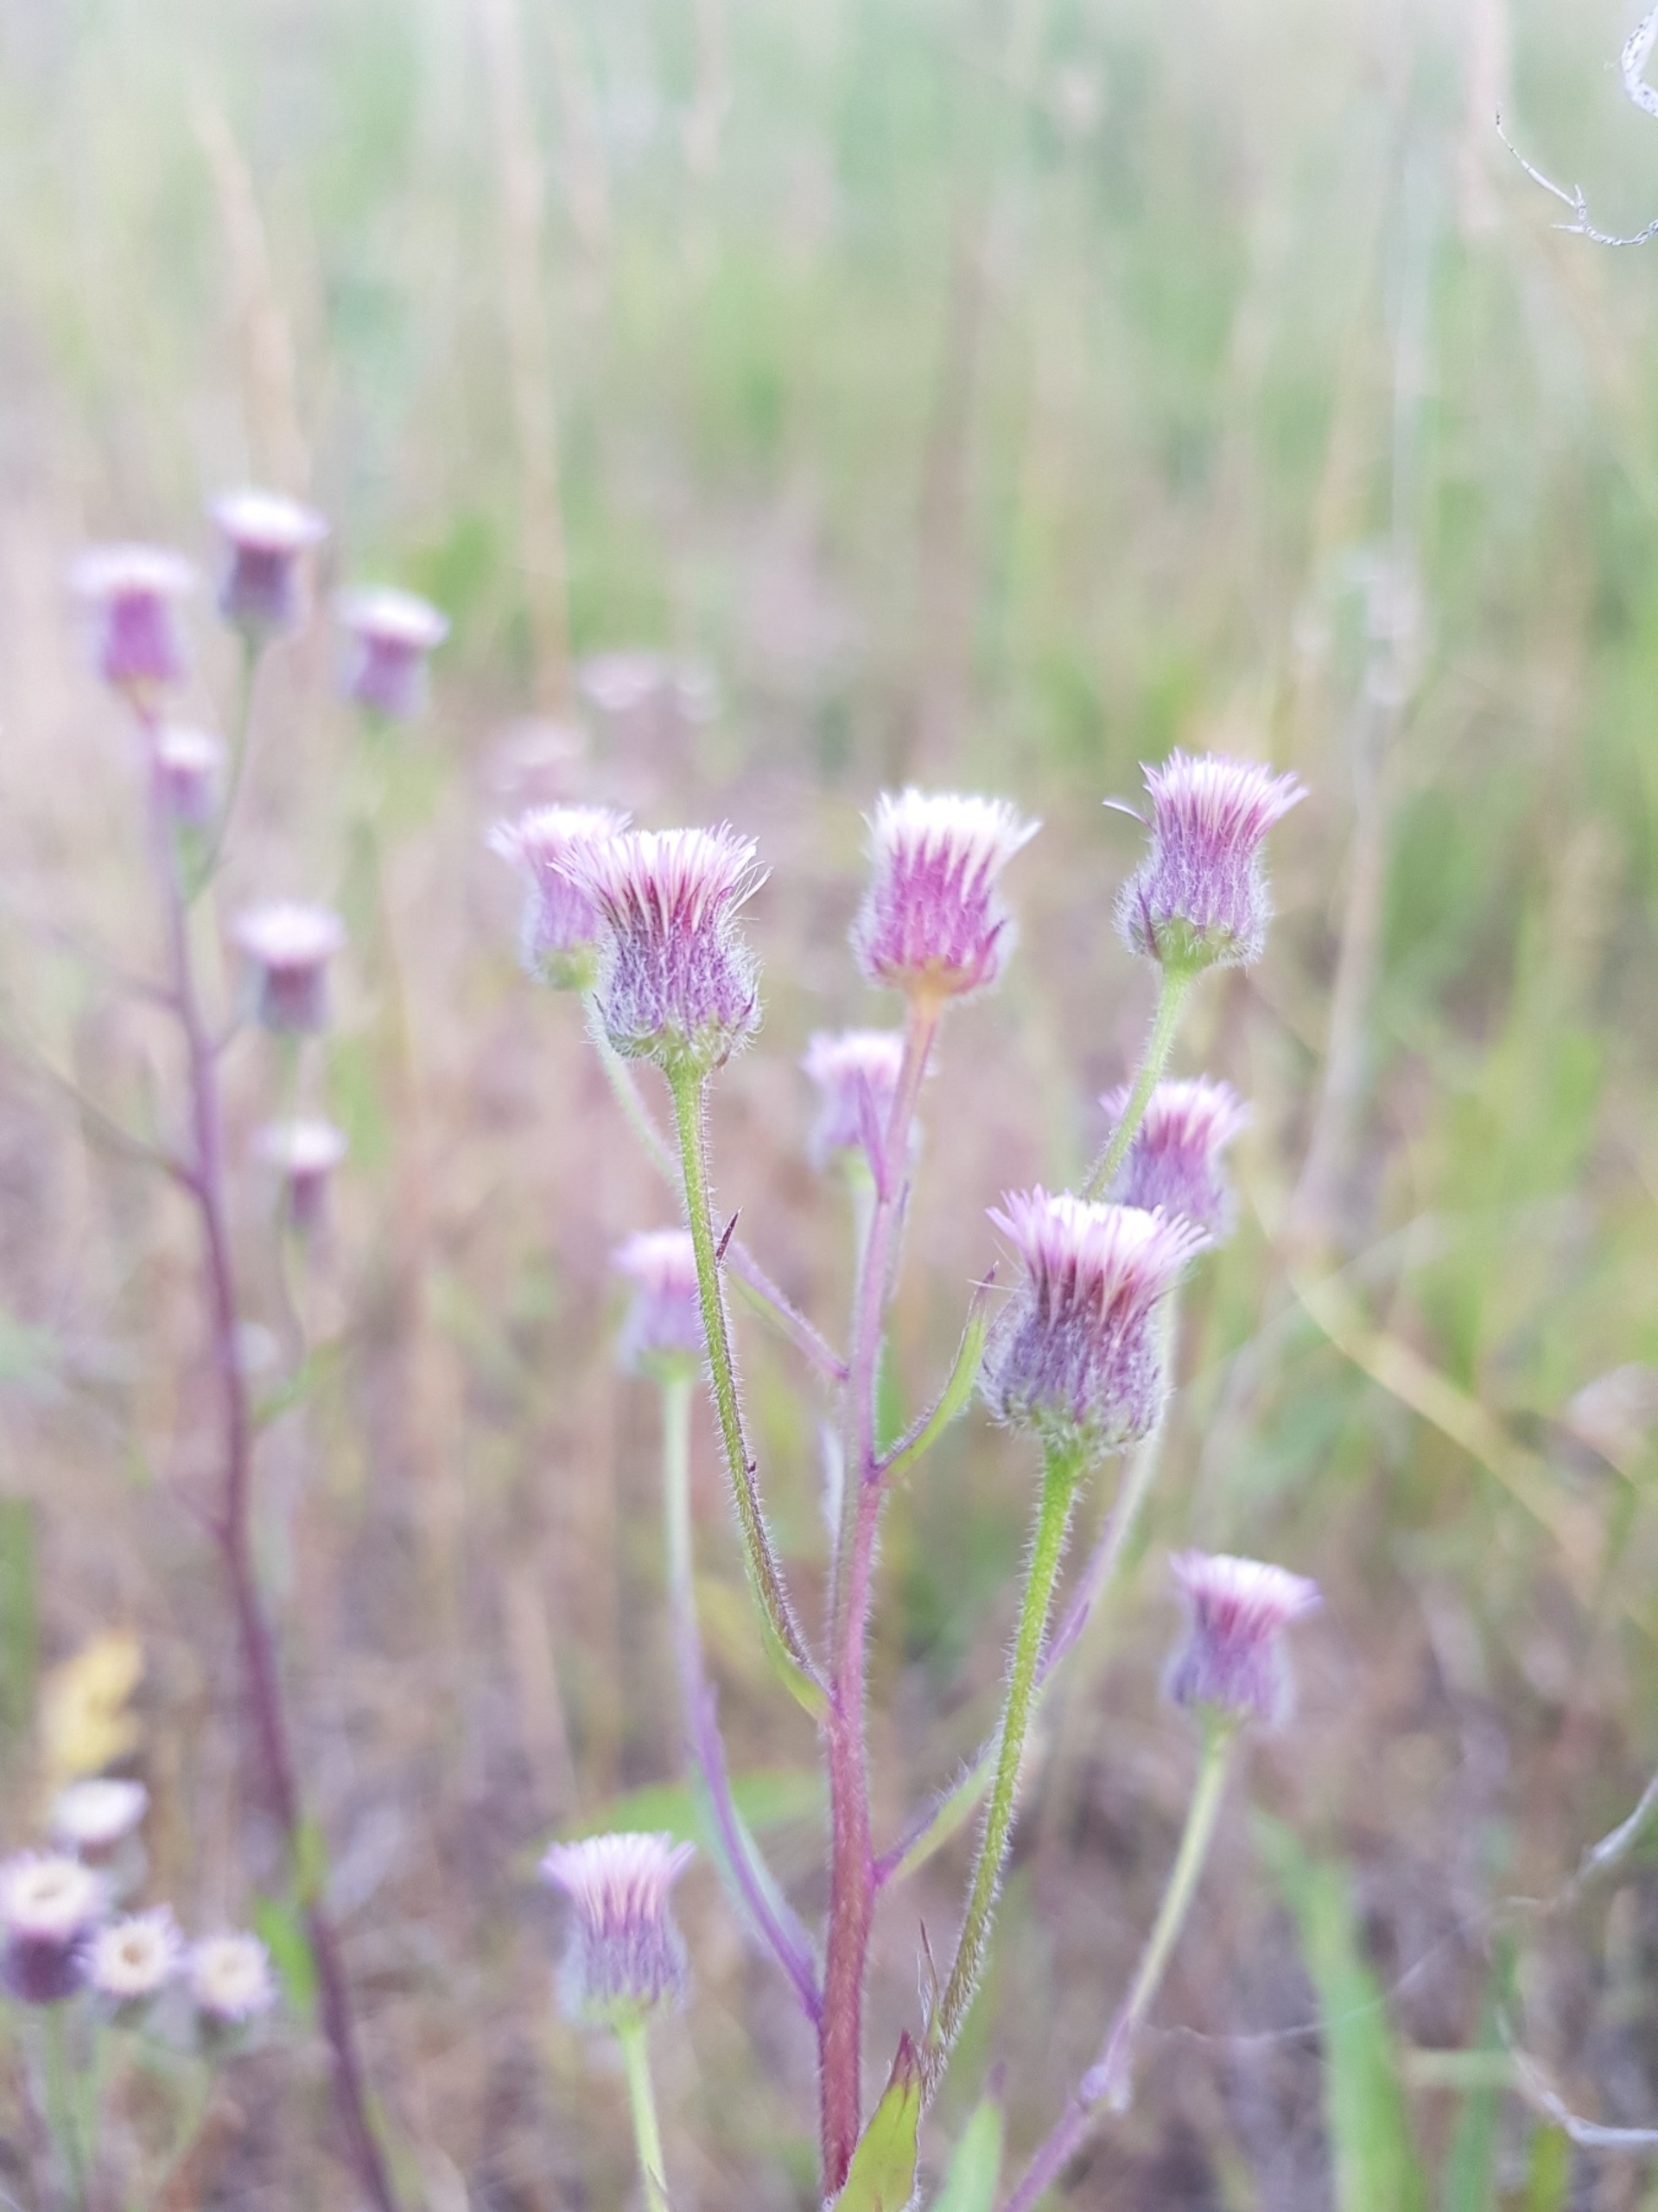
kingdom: Plantae
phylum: Tracheophyta
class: Magnoliopsida
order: Asterales
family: Asteraceae
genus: Erigeron
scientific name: Erigeron acris
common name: Bitter bakkestjerne
